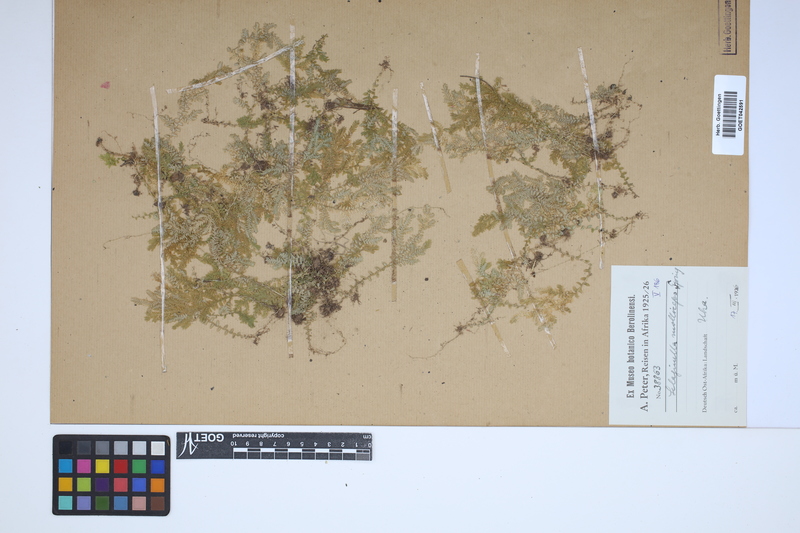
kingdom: Plantae
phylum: Tracheophyta
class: Lycopodiopsida
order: Selaginellales
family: Selaginellaceae
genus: Selaginella
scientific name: Selaginella molliceps
